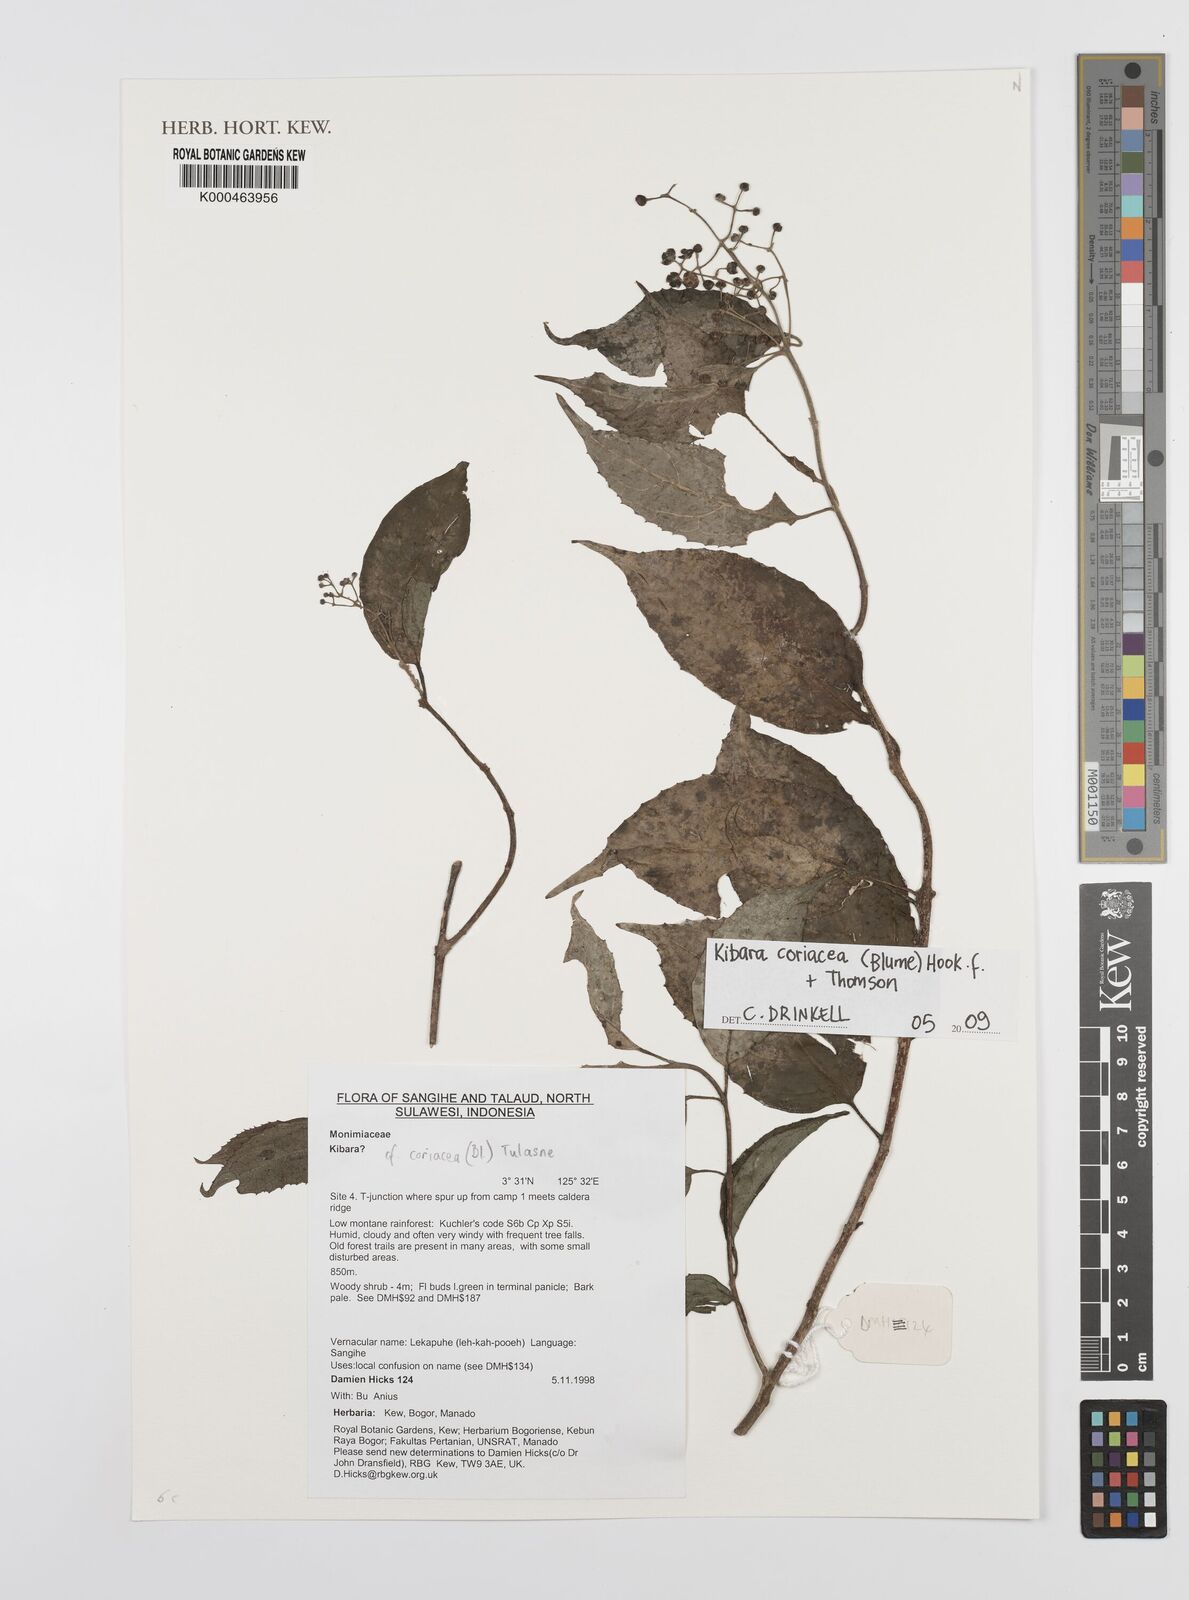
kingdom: Plantae
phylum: Tracheophyta
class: Magnoliopsida
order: Laurales
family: Monimiaceae
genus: Kibara
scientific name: Kibara coriacea
